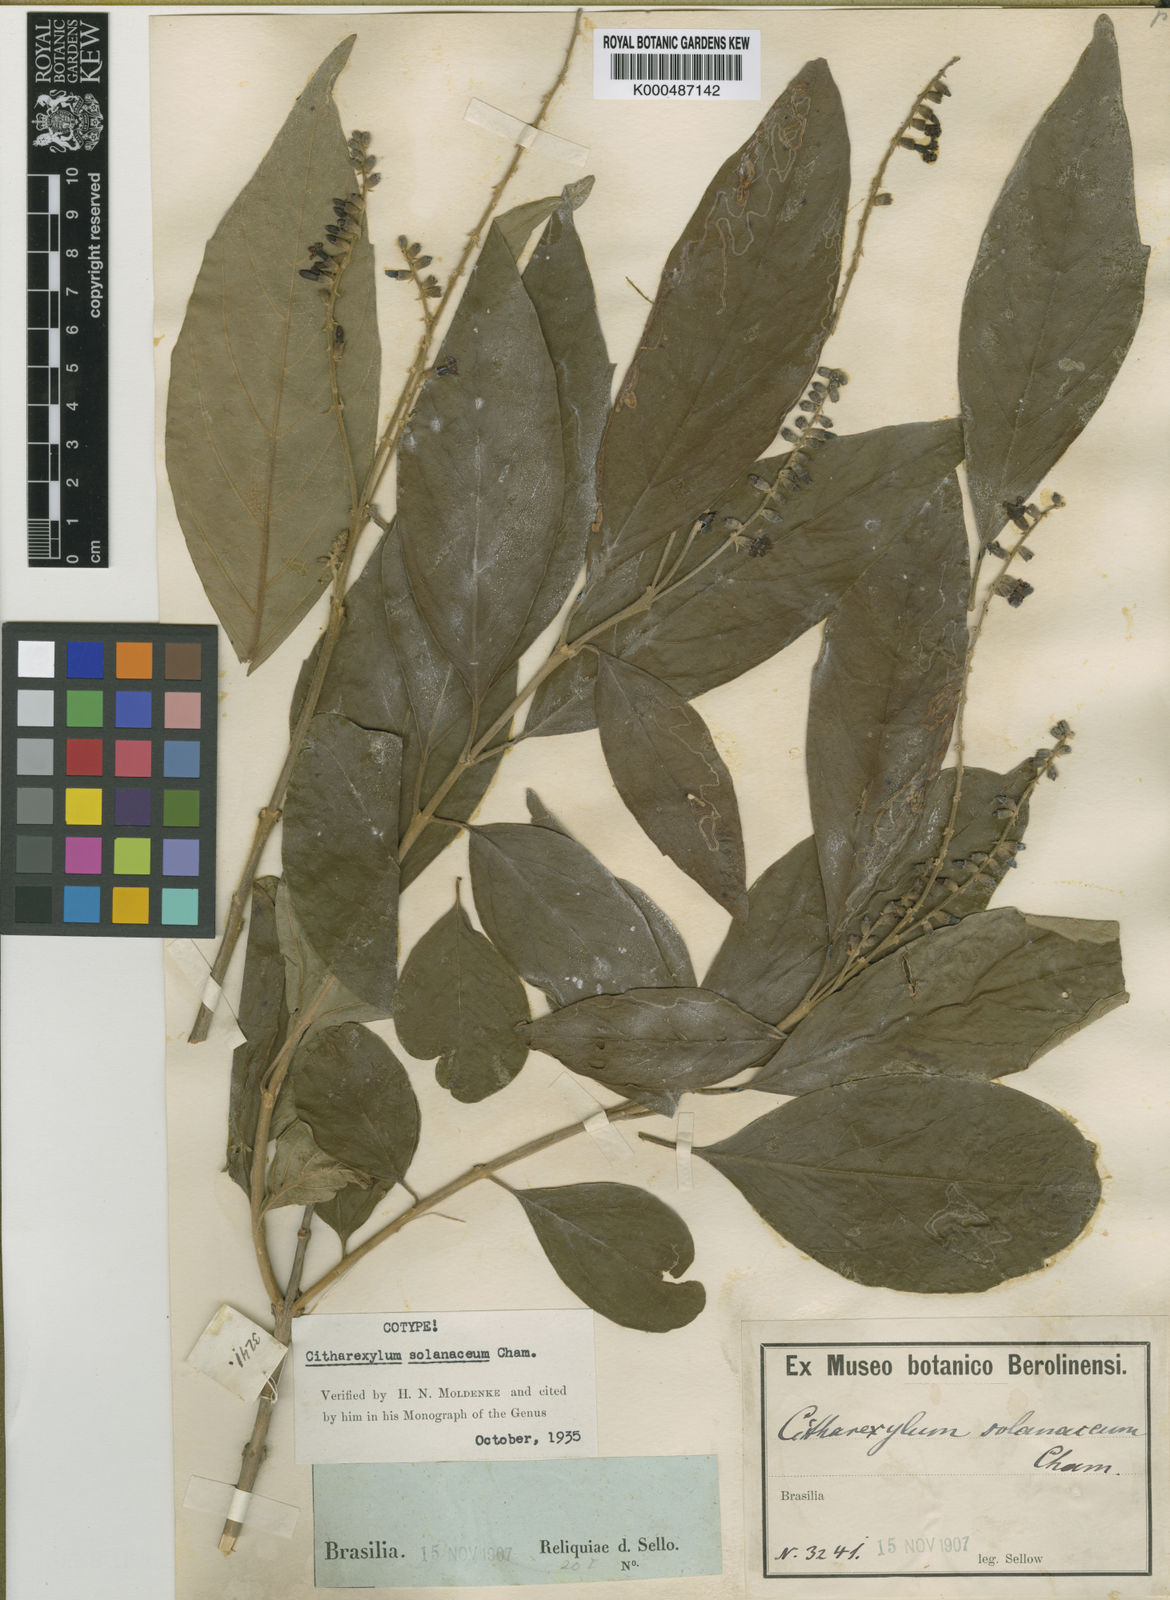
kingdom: Plantae
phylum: Tracheophyta
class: Magnoliopsida
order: Lamiales
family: Verbenaceae
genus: Citharexylum
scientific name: Citharexylum solanaceum
